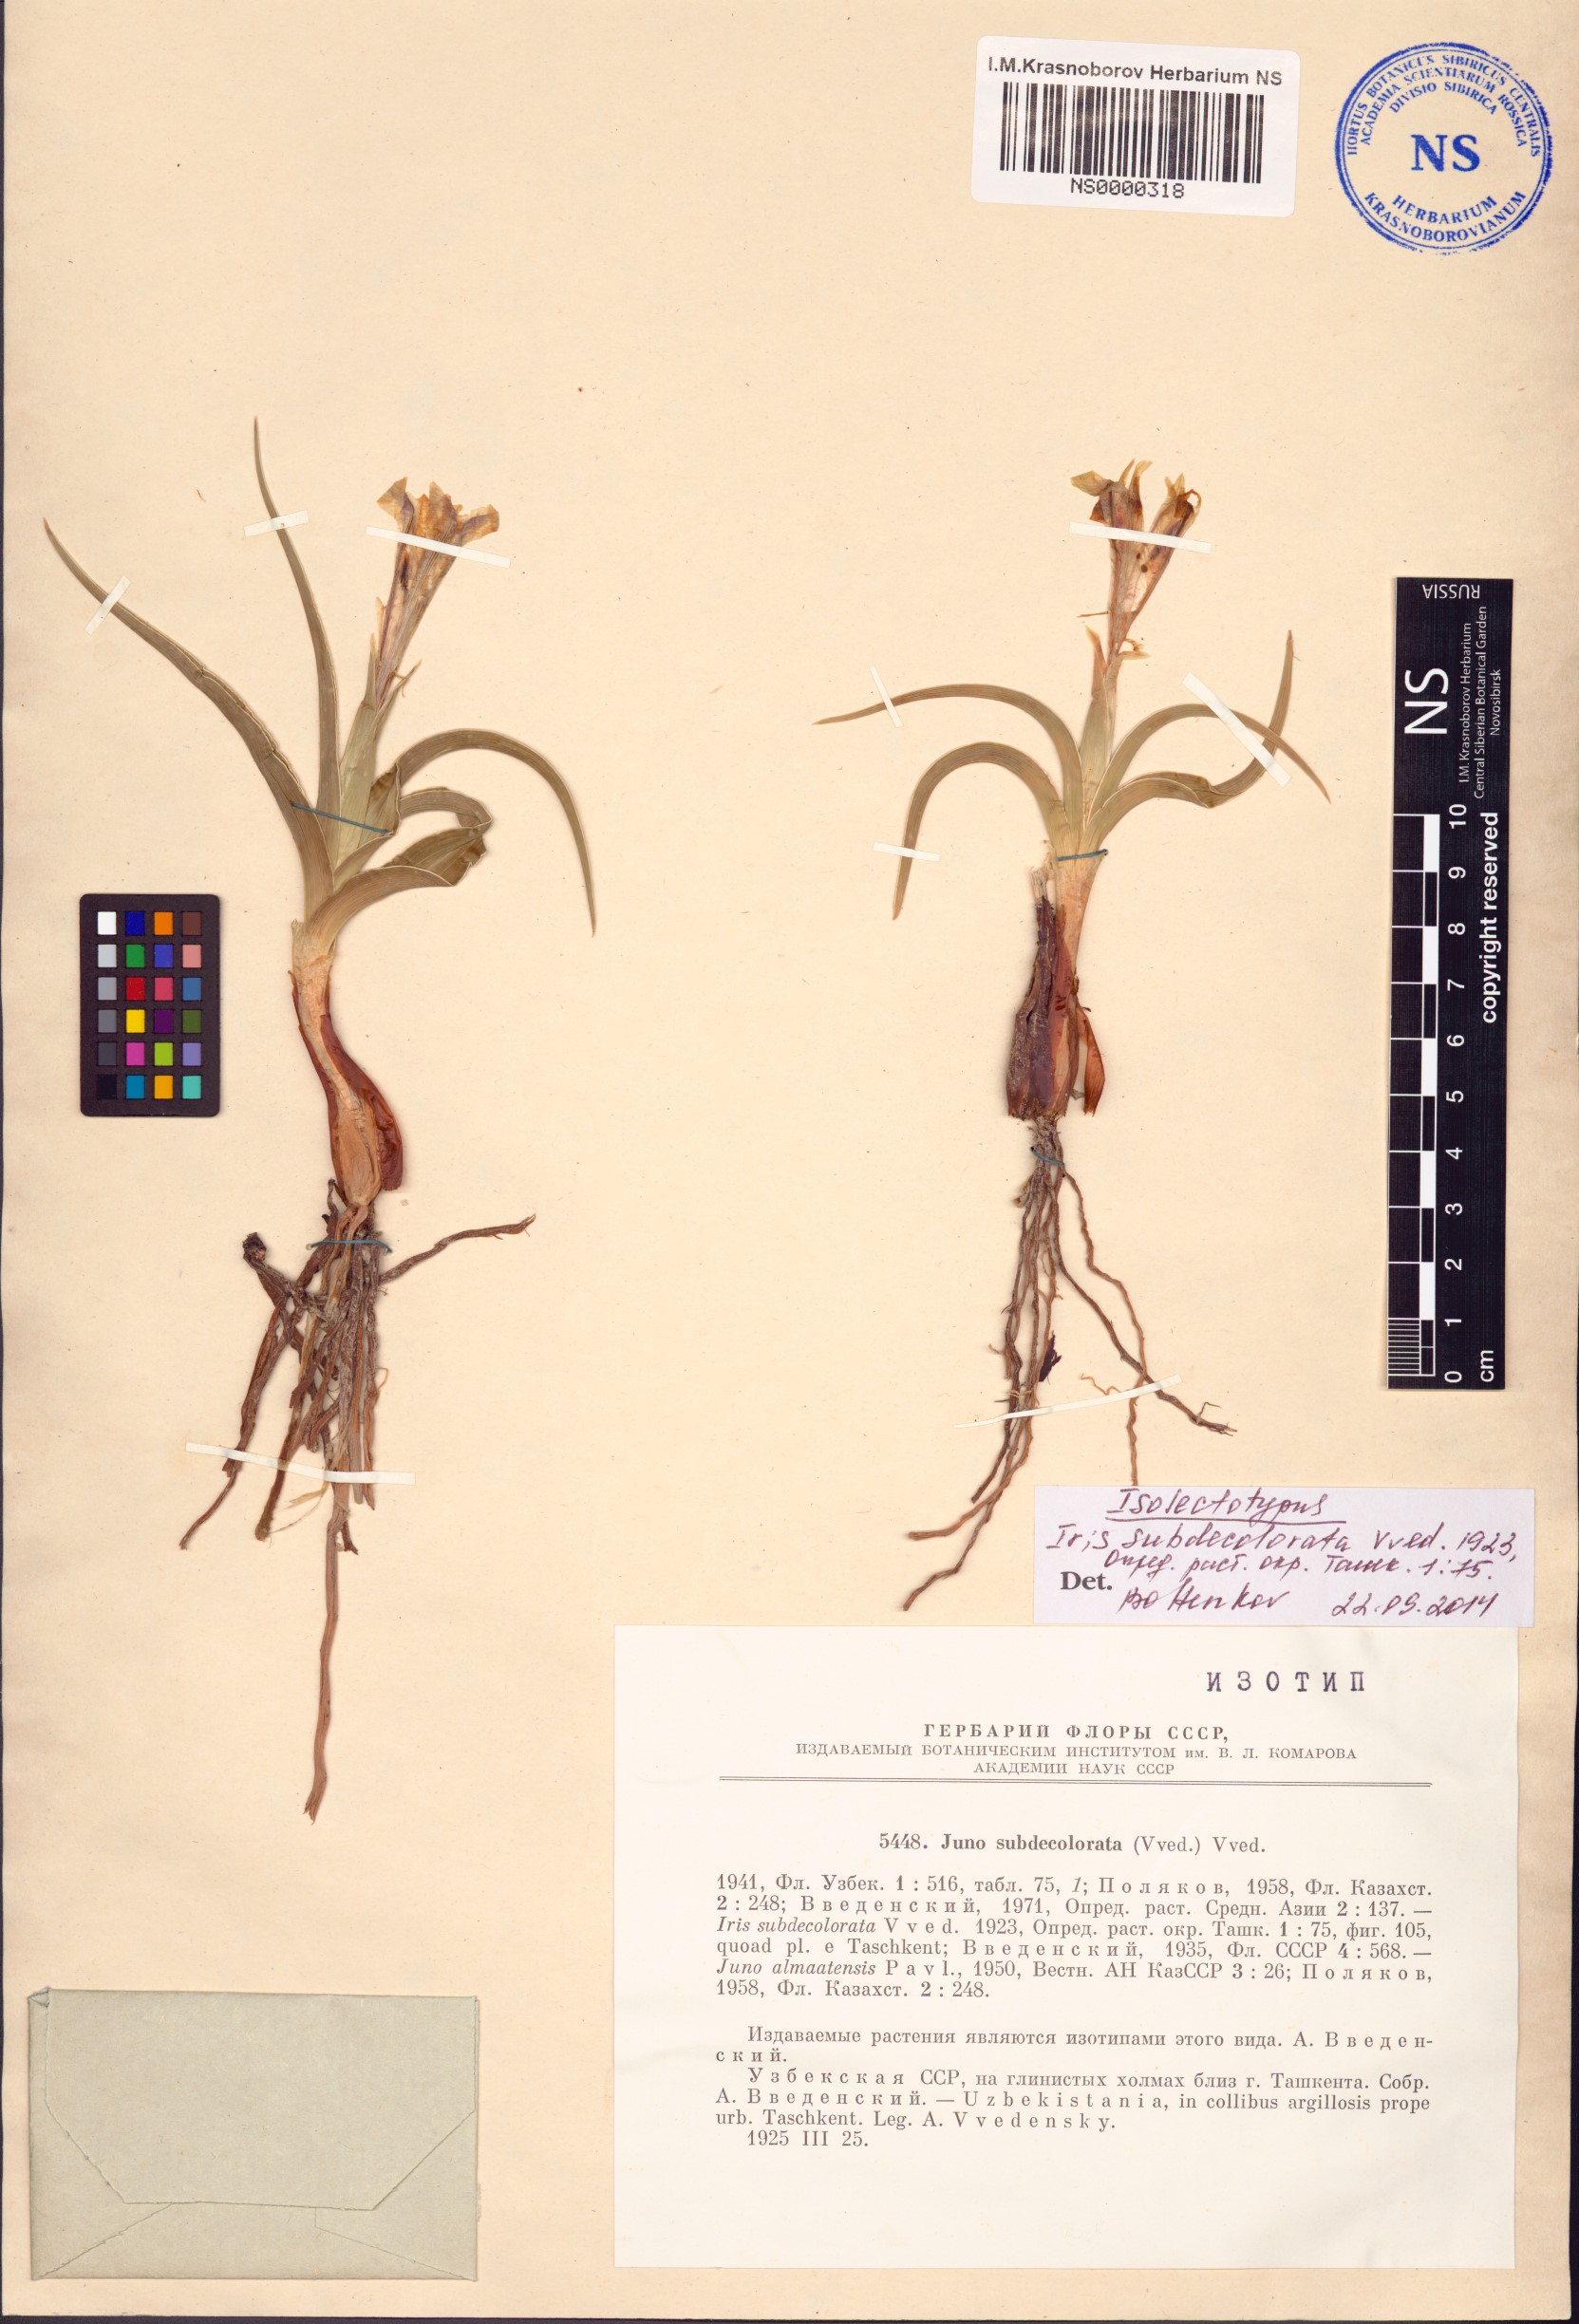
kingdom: Plantae
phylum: Tracheophyta
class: Liliopsida
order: Asparagales
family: Iridaceae
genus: Iris
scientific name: Iris subdecolorata
